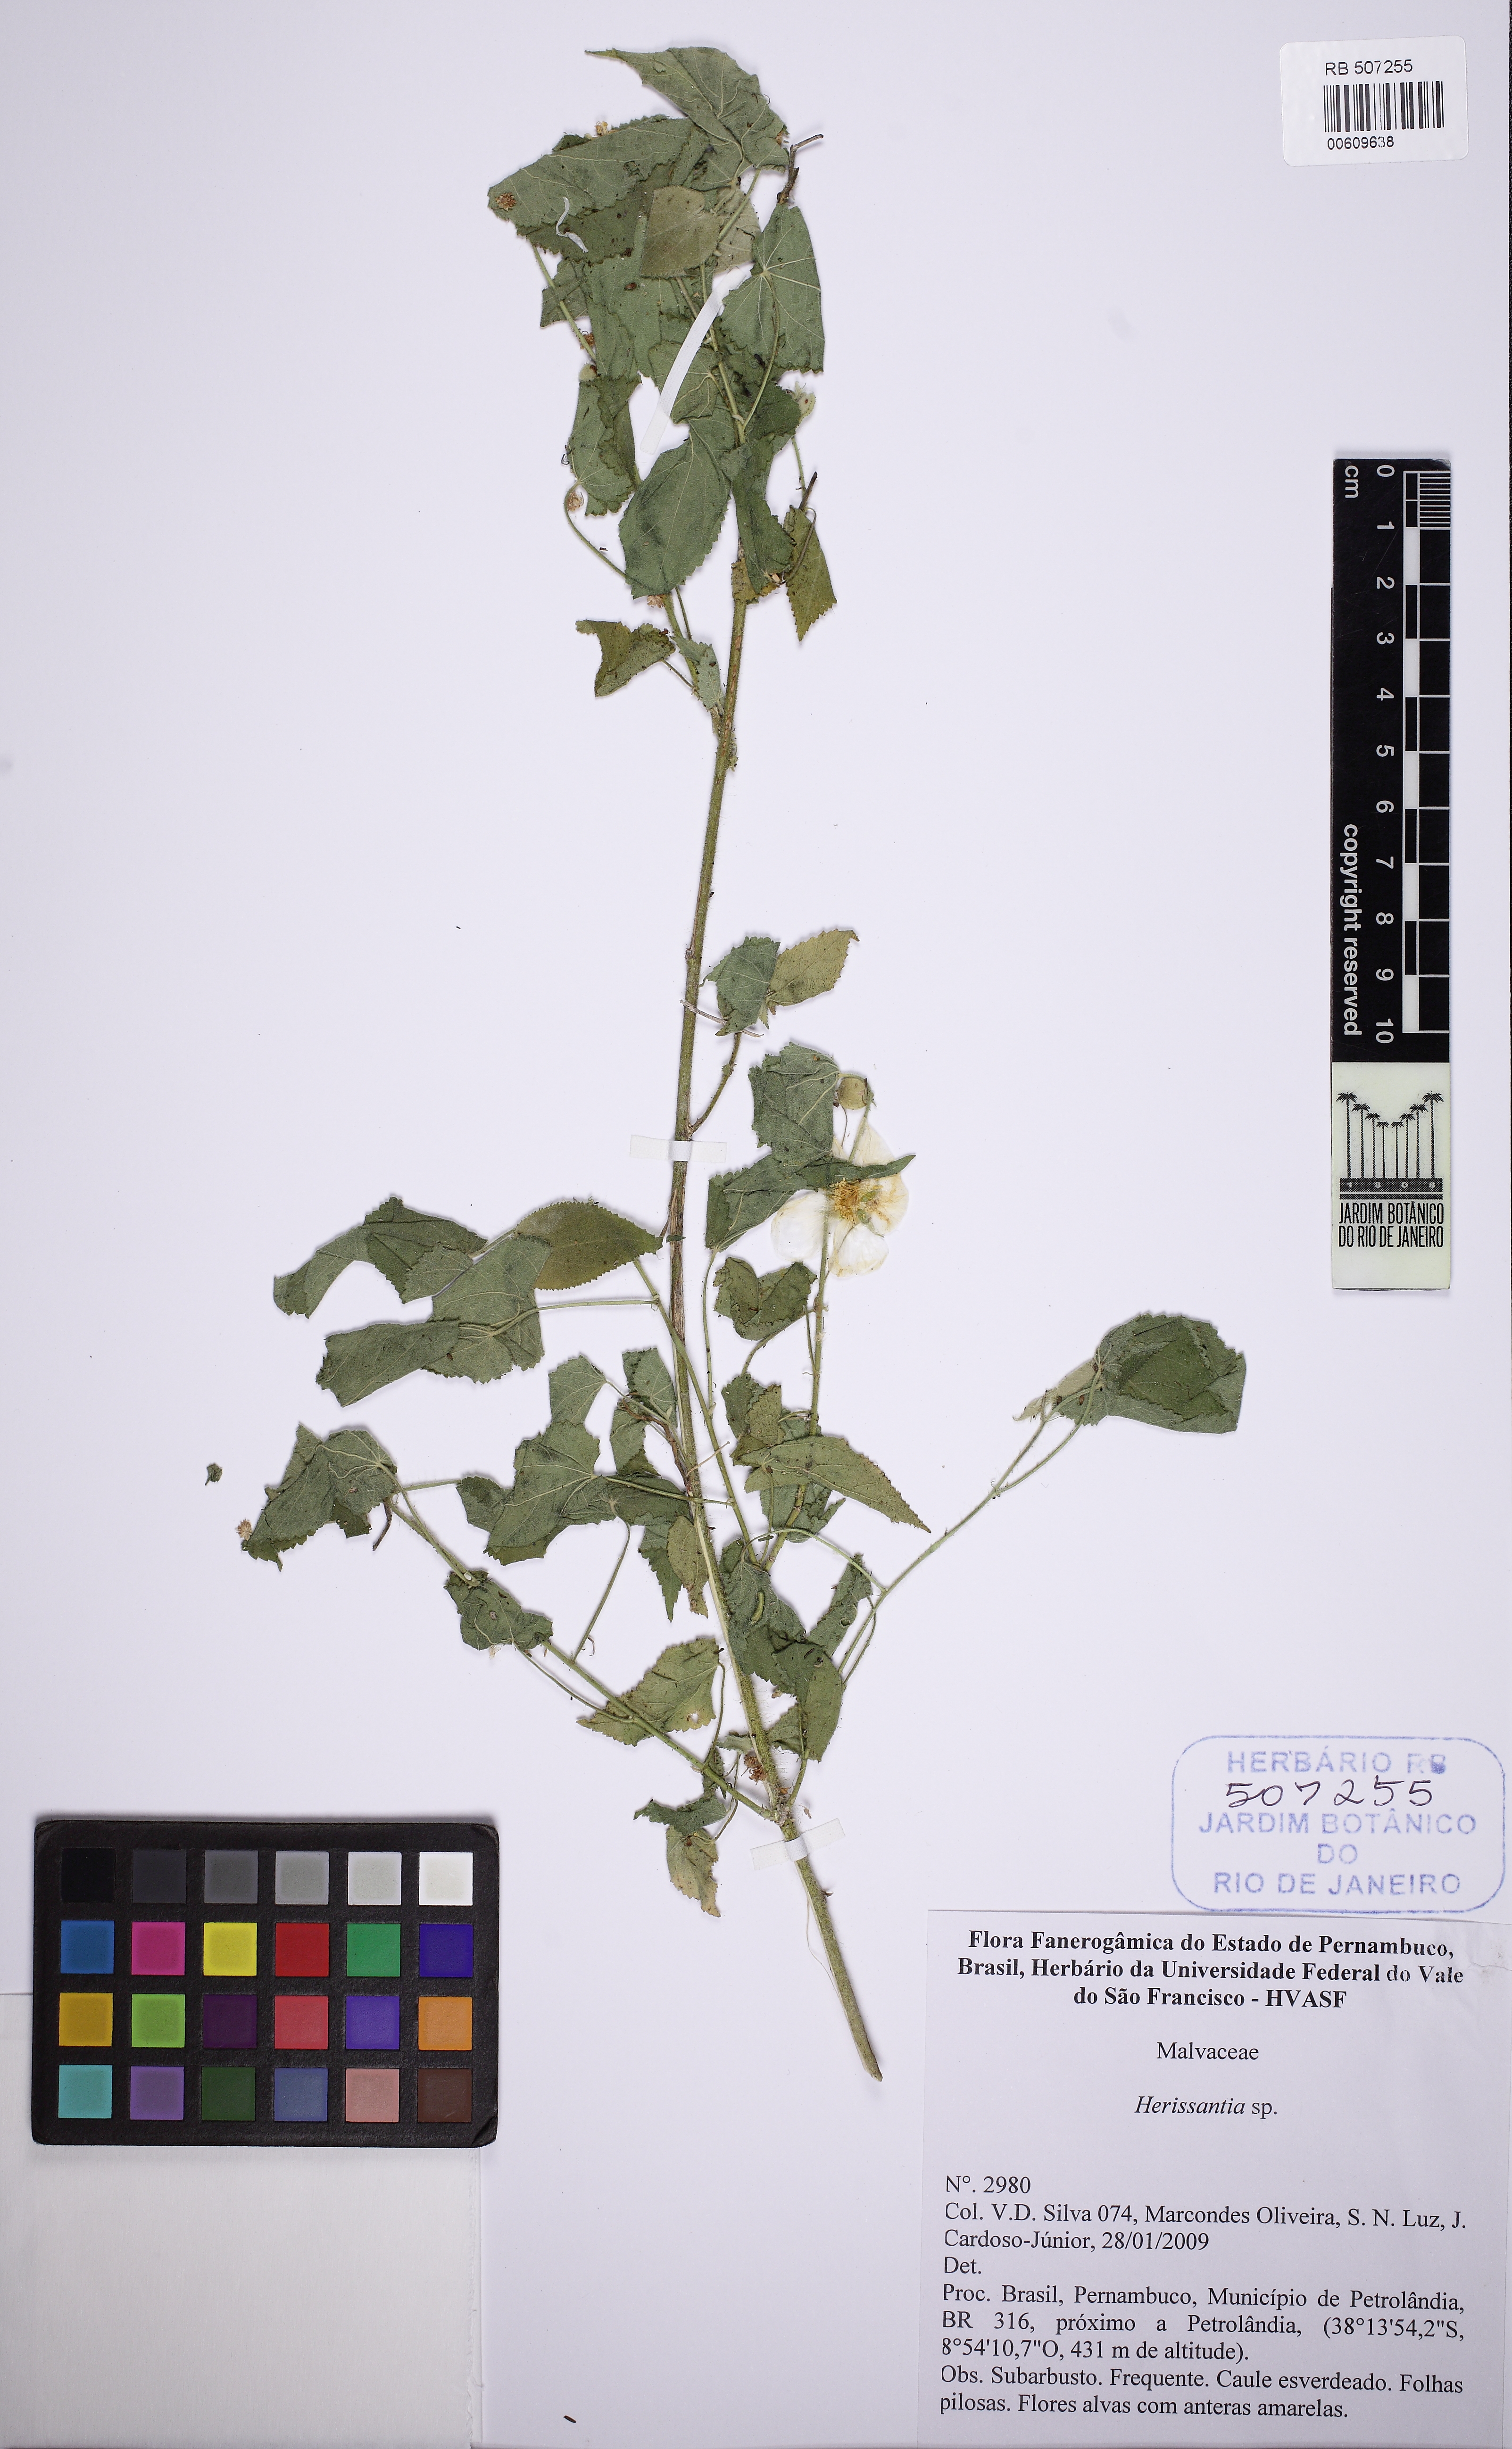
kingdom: Plantae
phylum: Tracheophyta
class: Magnoliopsida
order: Malvales
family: Malvaceae
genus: Herissantia
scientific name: Herissantia
